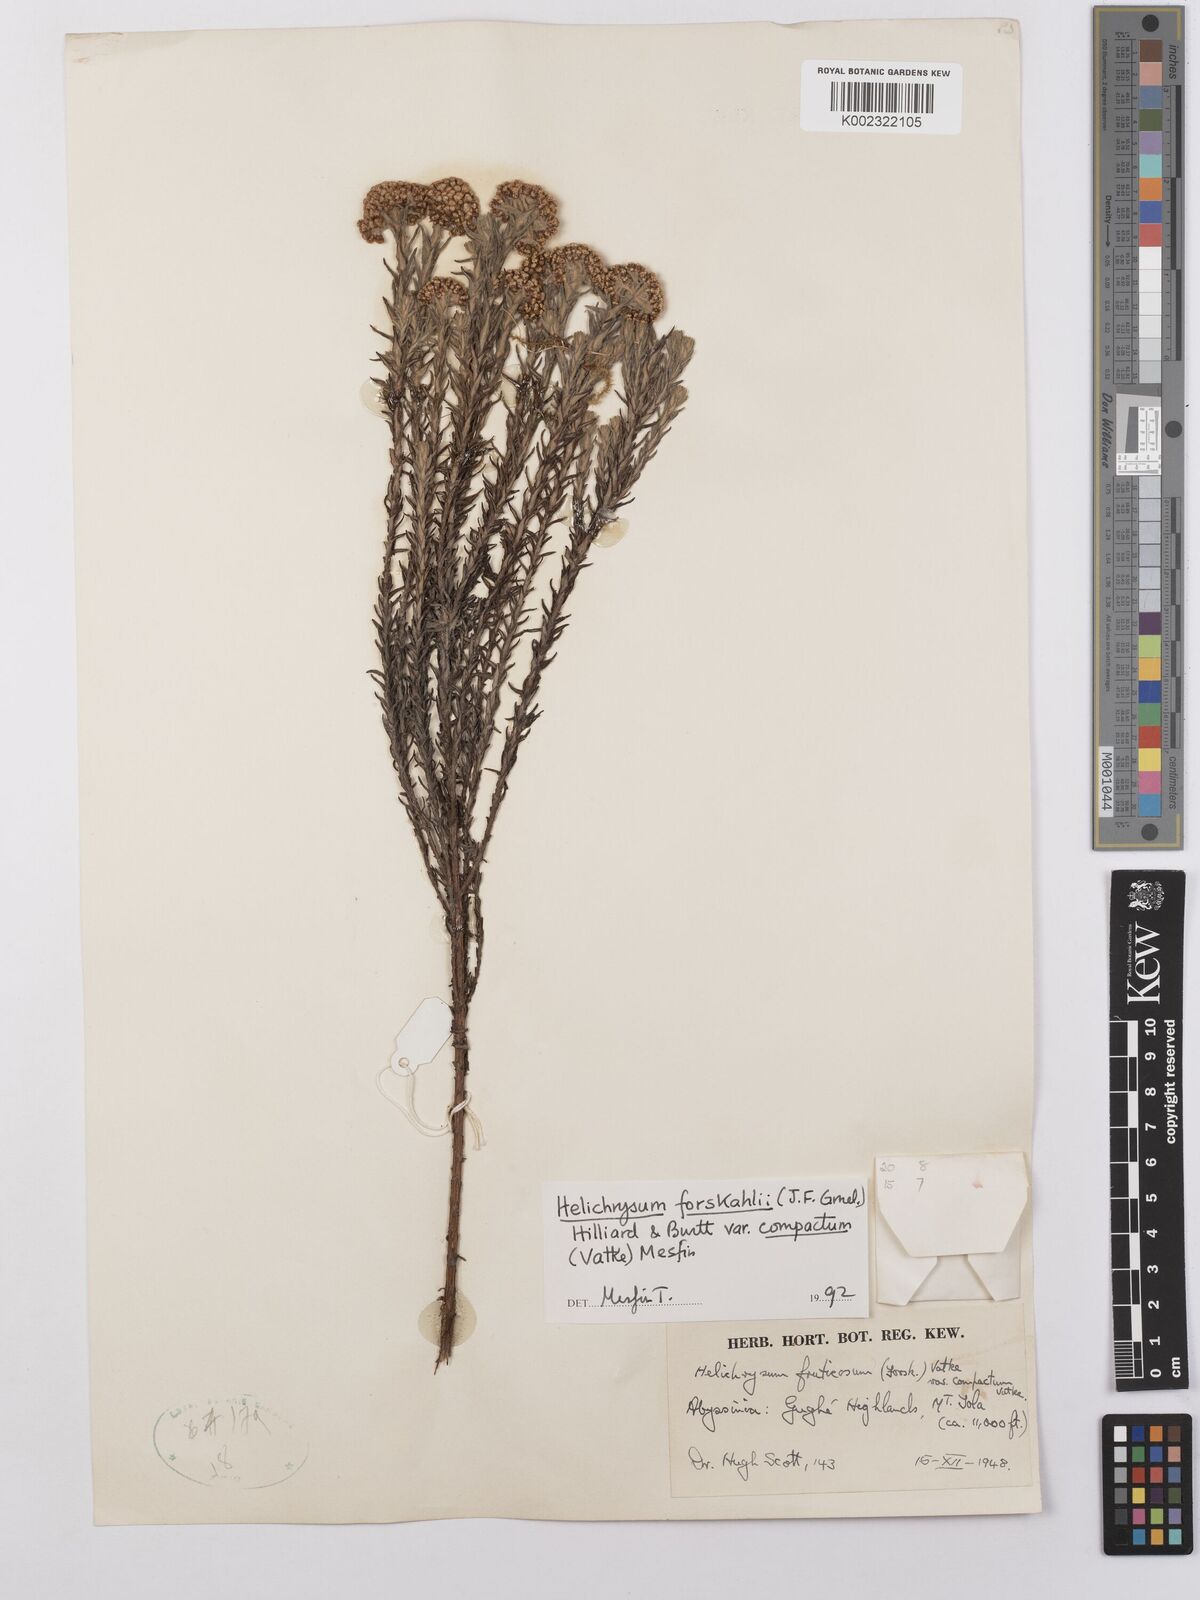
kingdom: Plantae
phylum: Tracheophyta
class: Magnoliopsida
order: Asterales
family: Asteraceae
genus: Helichrysum
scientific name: Helichrysum forskahlii
